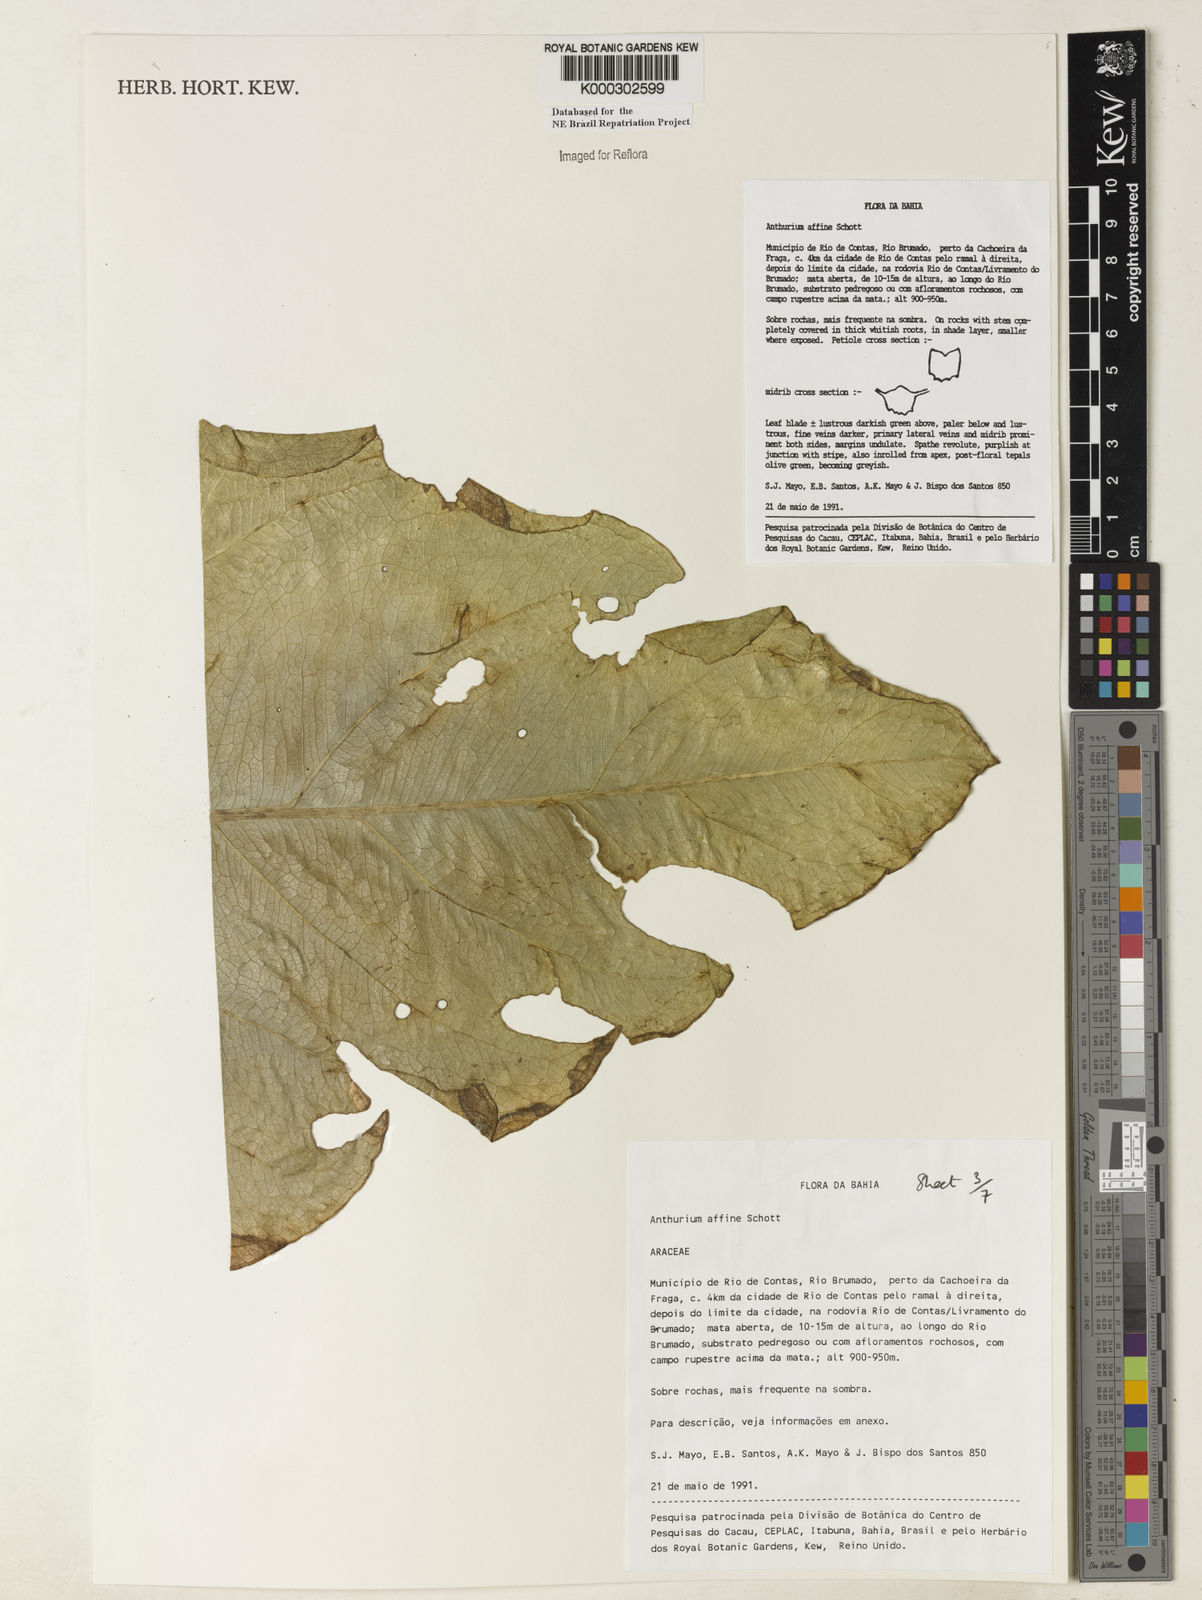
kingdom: Plantae
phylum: Tracheophyta
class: Liliopsida
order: Alismatales
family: Araceae
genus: Anthurium
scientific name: Anthurium affine
